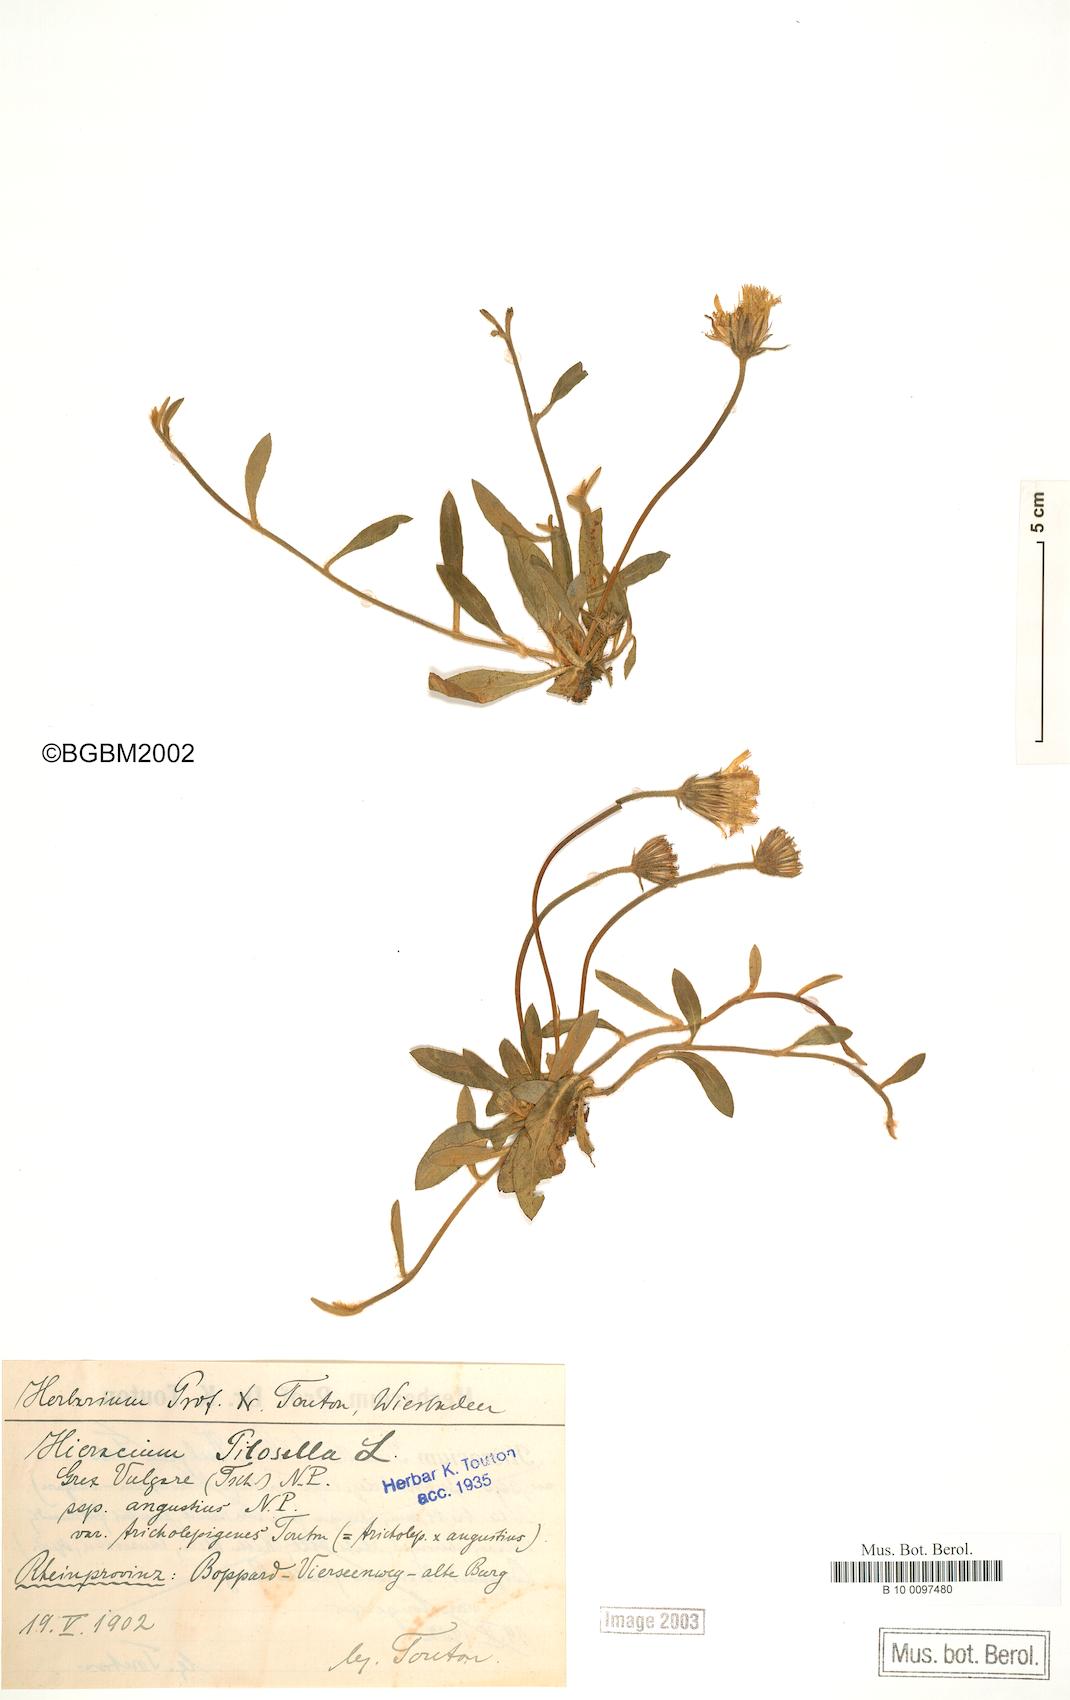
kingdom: Plantae
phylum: Tracheophyta
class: Magnoliopsida
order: Asterales
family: Asteraceae
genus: Pilosella
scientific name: Pilosella officinarum
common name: Mouse-ear hawkweed
